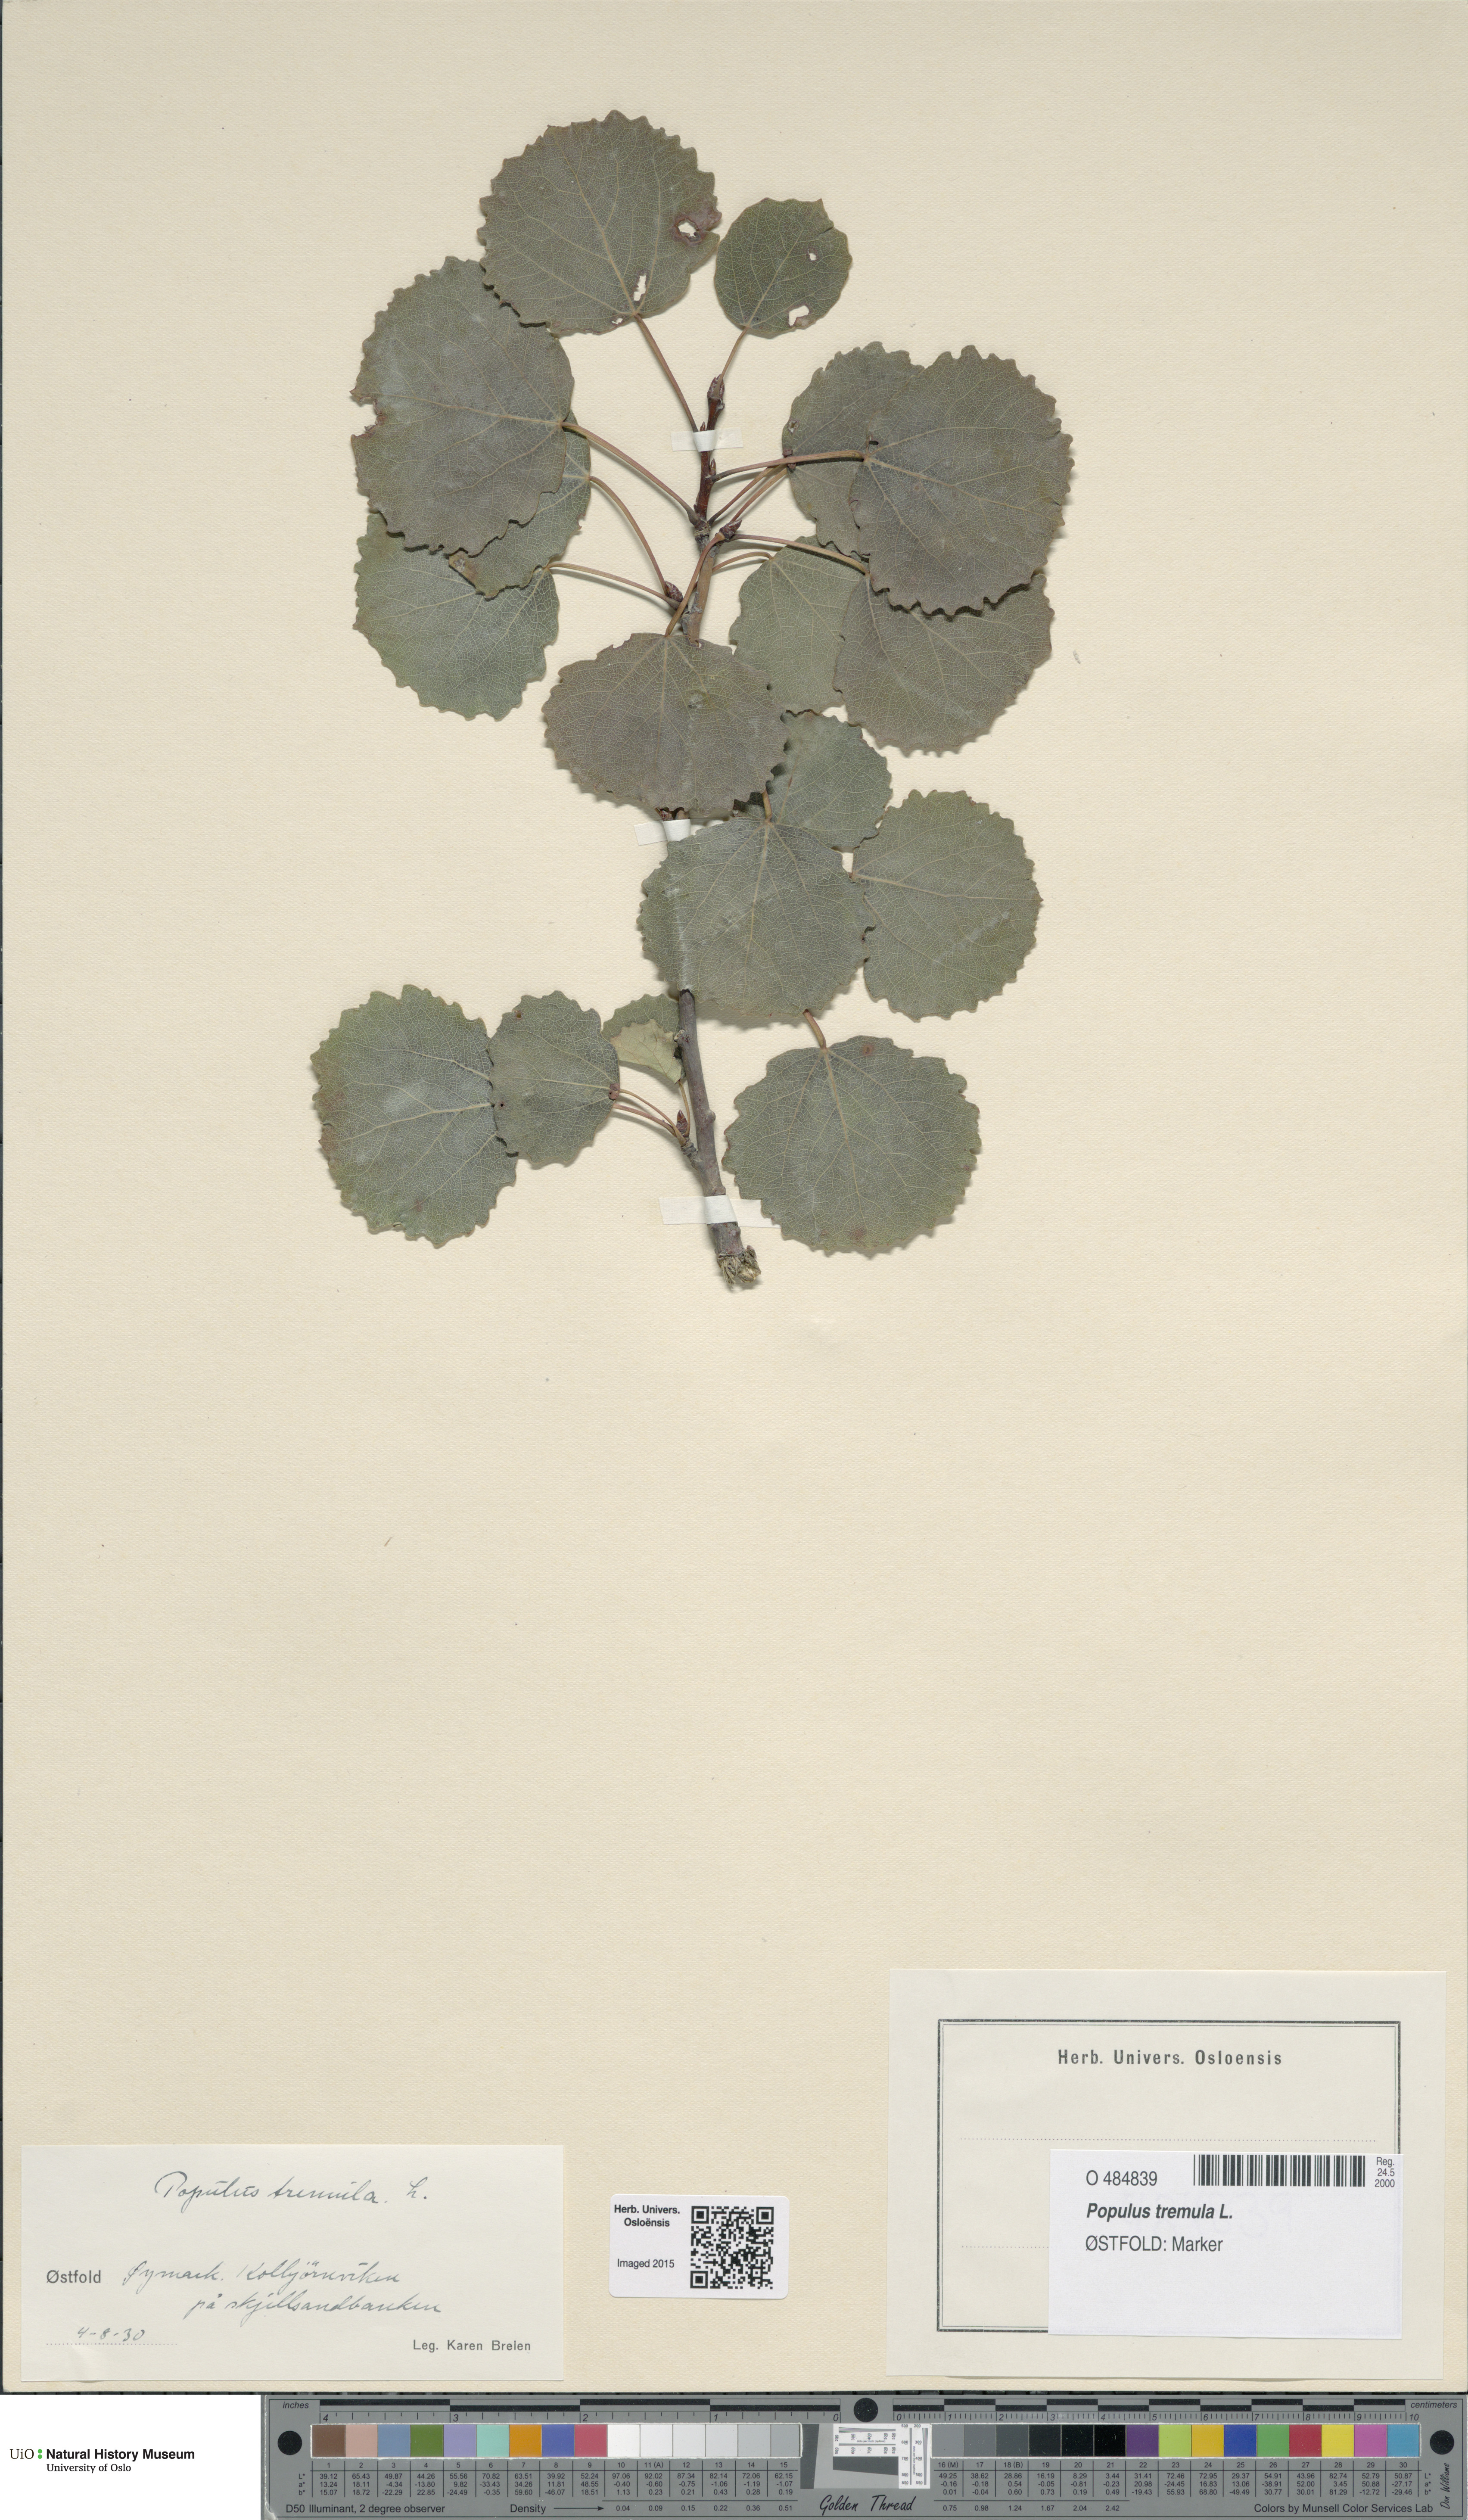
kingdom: Plantae
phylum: Tracheophyta
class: Magnoliopsida
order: Malpighiales
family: Salicaceae
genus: Populus
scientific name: Populus tremula
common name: European aspen
